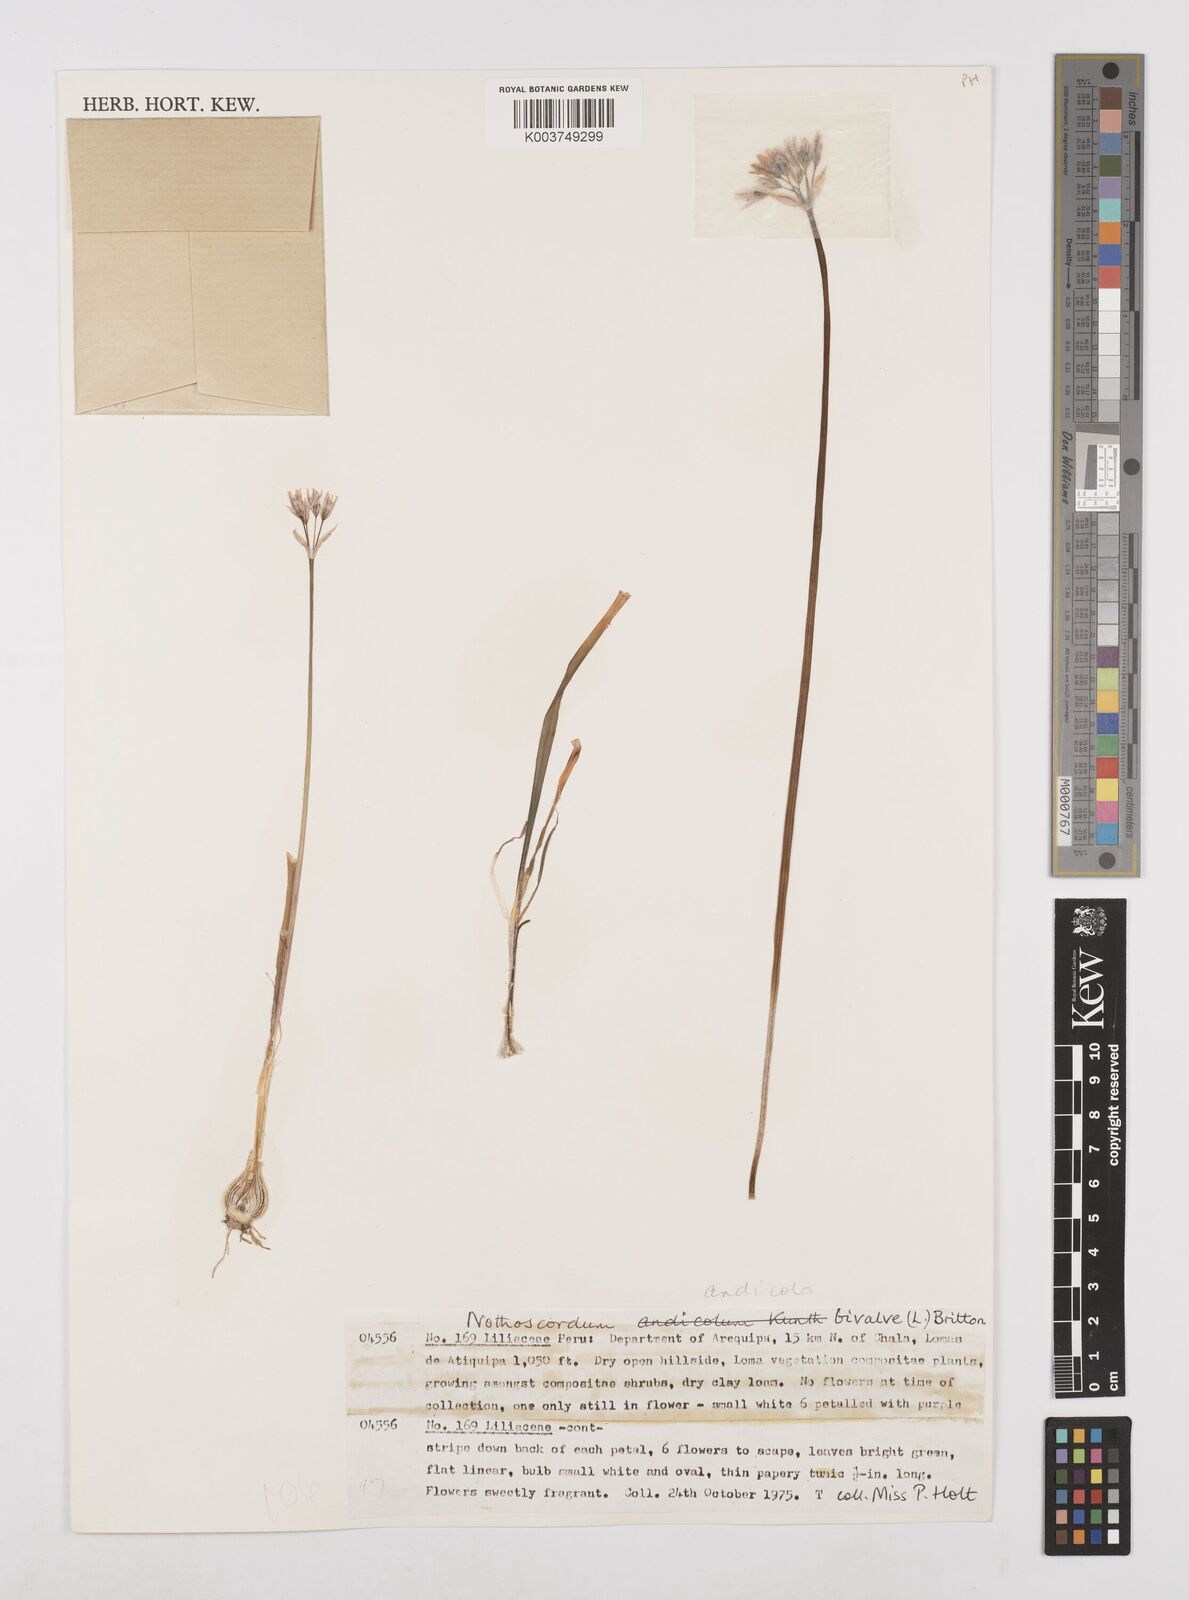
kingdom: Plantae
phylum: Tracheophyta
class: Liliopsida
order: Asparagales
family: Amaryllidaceae
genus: Nothoscordum
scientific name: Nothoscordum andicola
